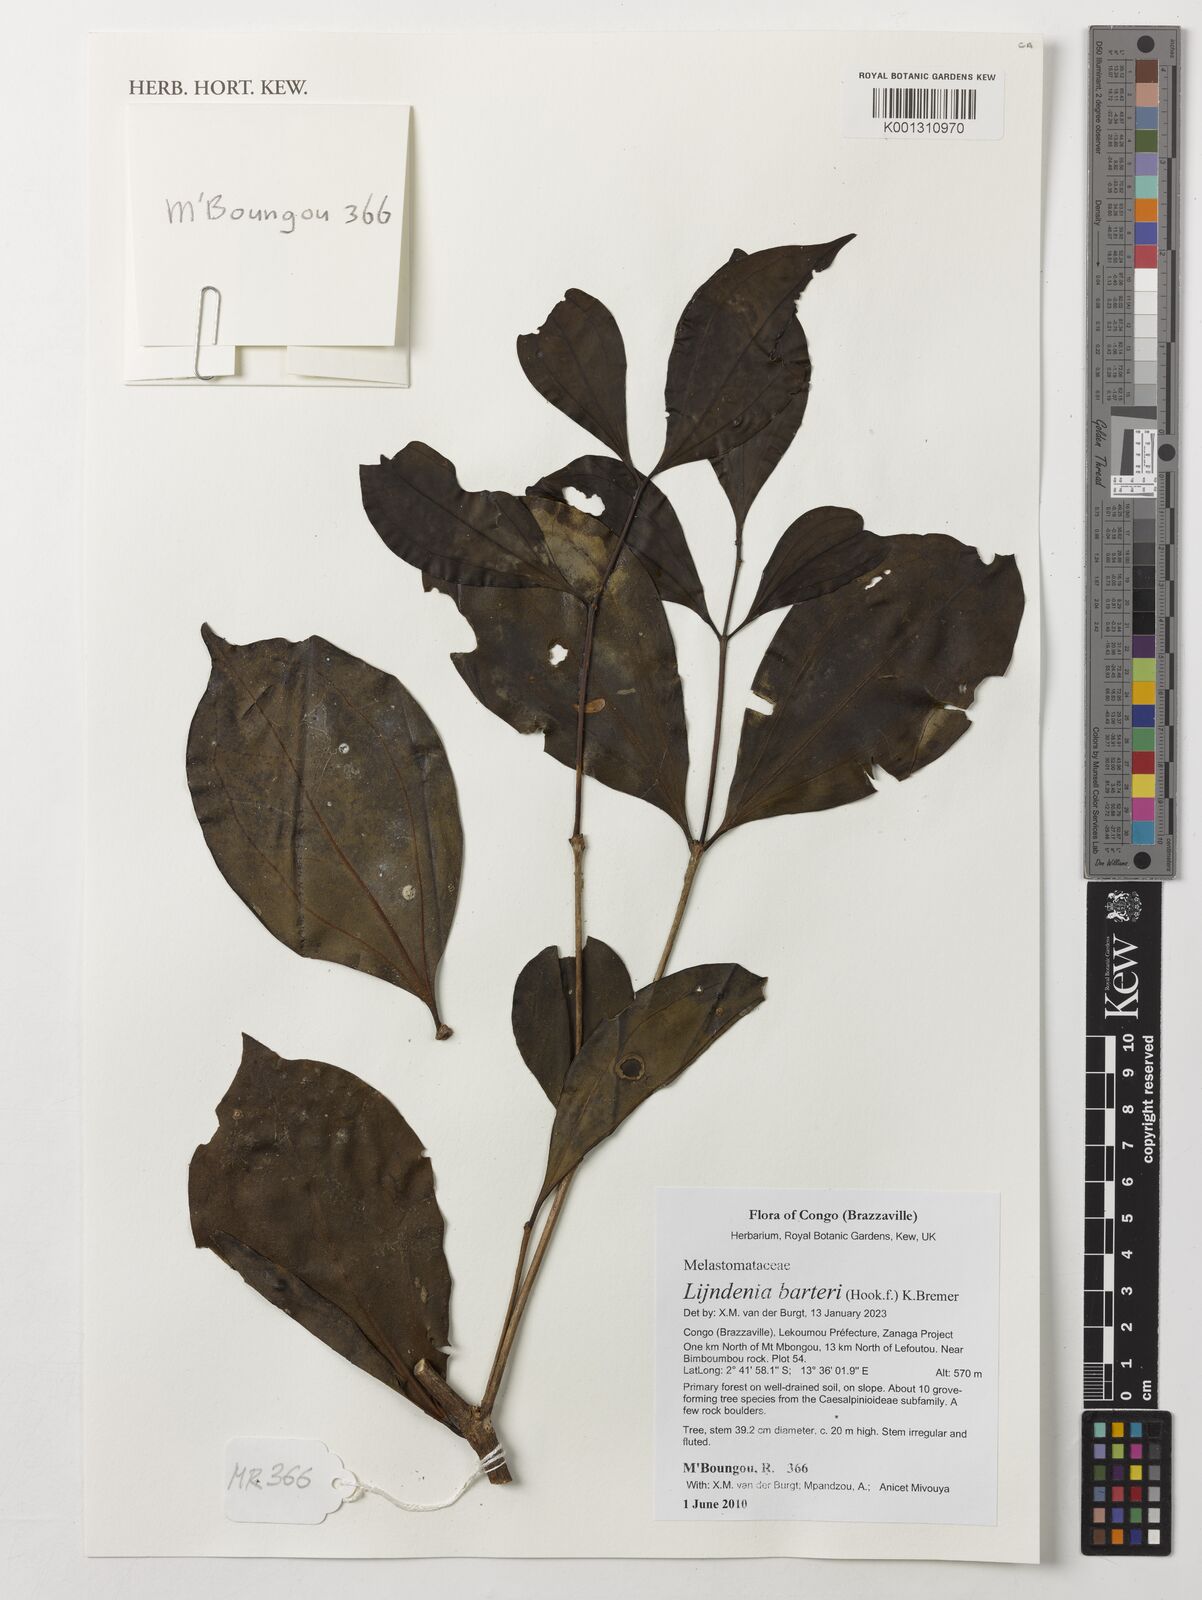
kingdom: Plantae
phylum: Tracheophyta
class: Magnoliopsida
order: Myrtales
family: Melastomataceae
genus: Lijndenia
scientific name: Lijndenia barteri
